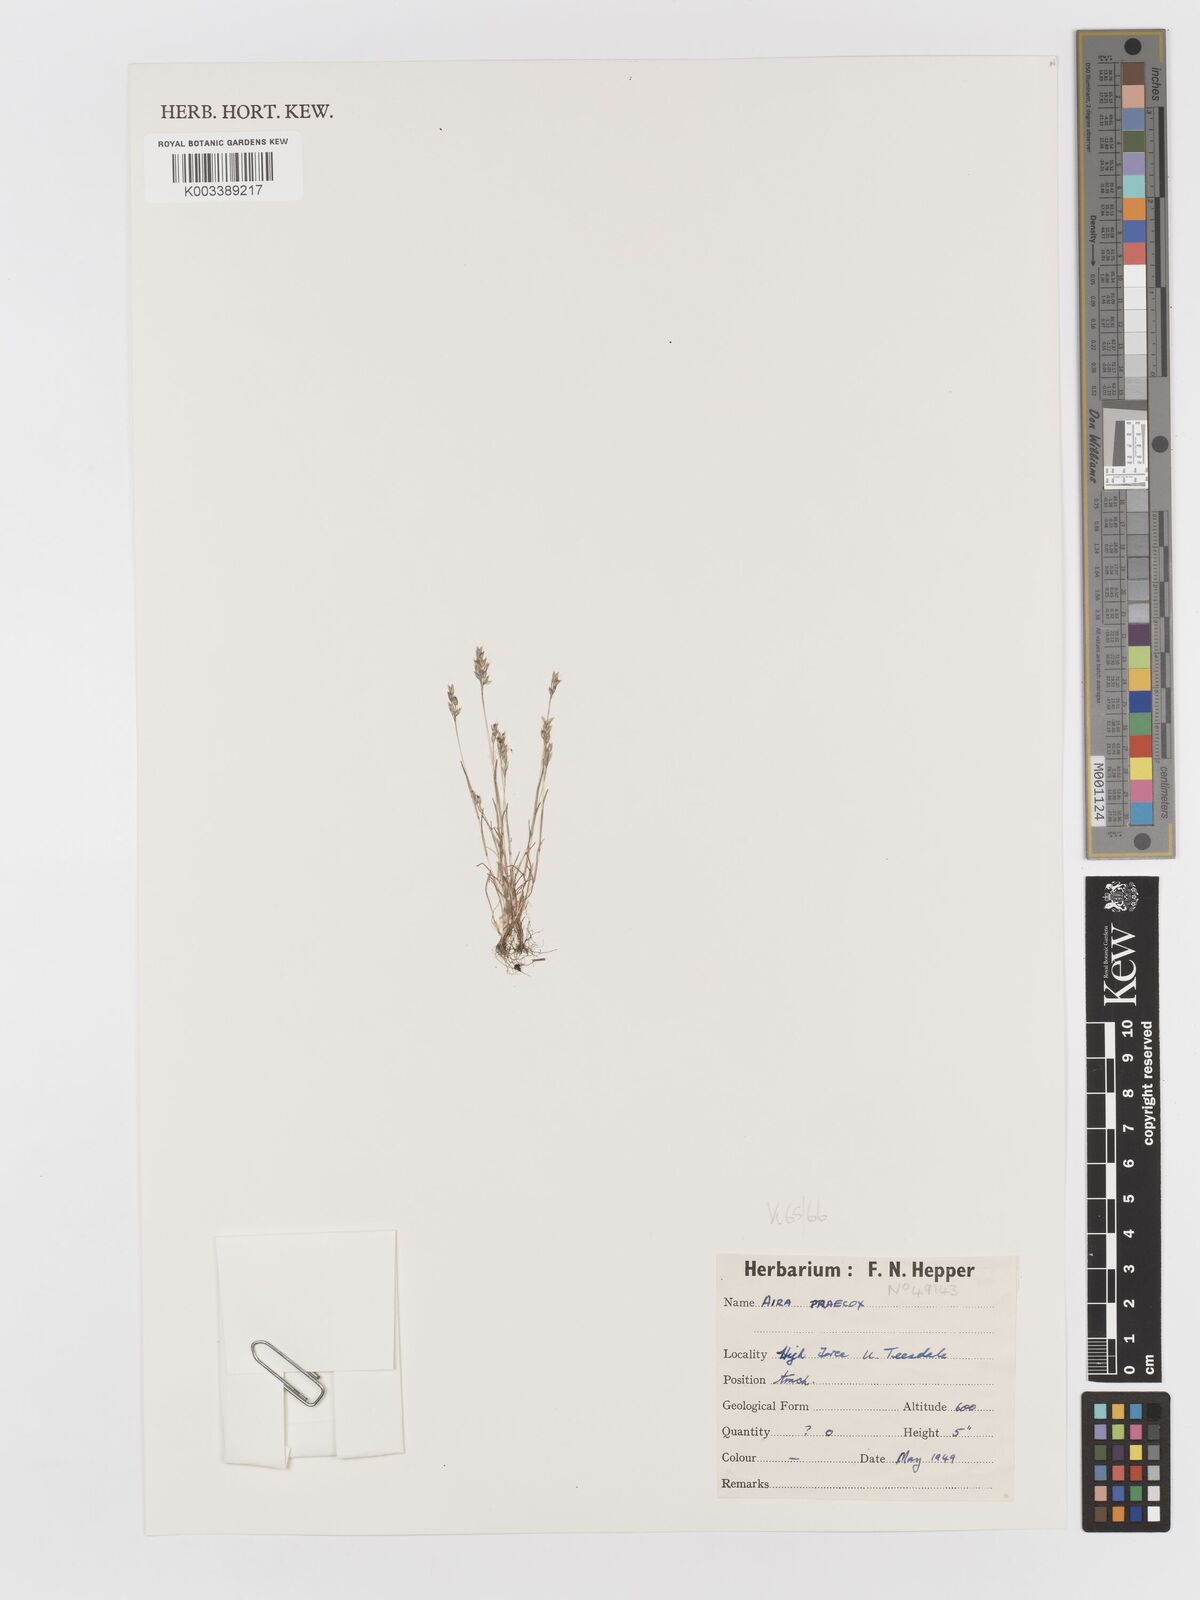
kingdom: Plantae
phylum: Tracheophyta
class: Liliopsida
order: Poales
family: Poaceae
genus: Aira
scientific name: Aira praecox
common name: Early hair-grass
